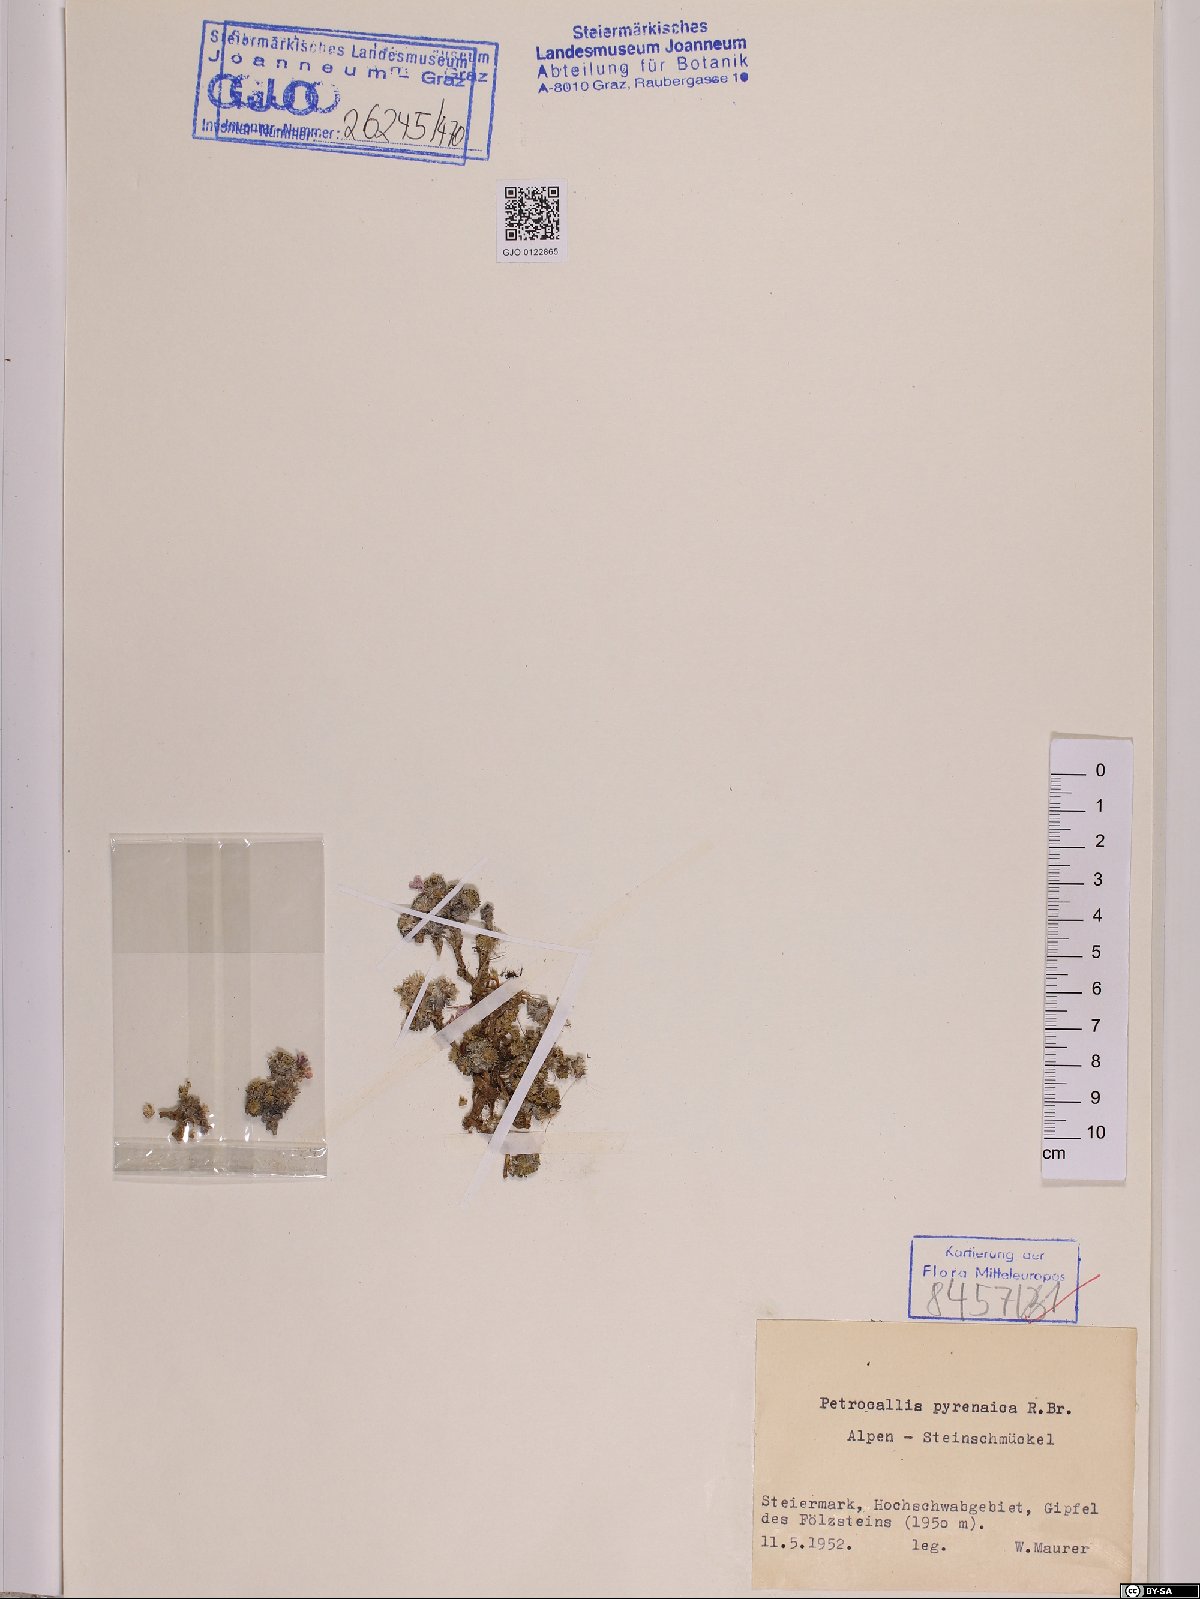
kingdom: Plantae
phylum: Tracheophyta
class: Magnoliopsida
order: Brassicales
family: Brassicaceae
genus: Petrocallis
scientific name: Petrocallis pyrenaica
